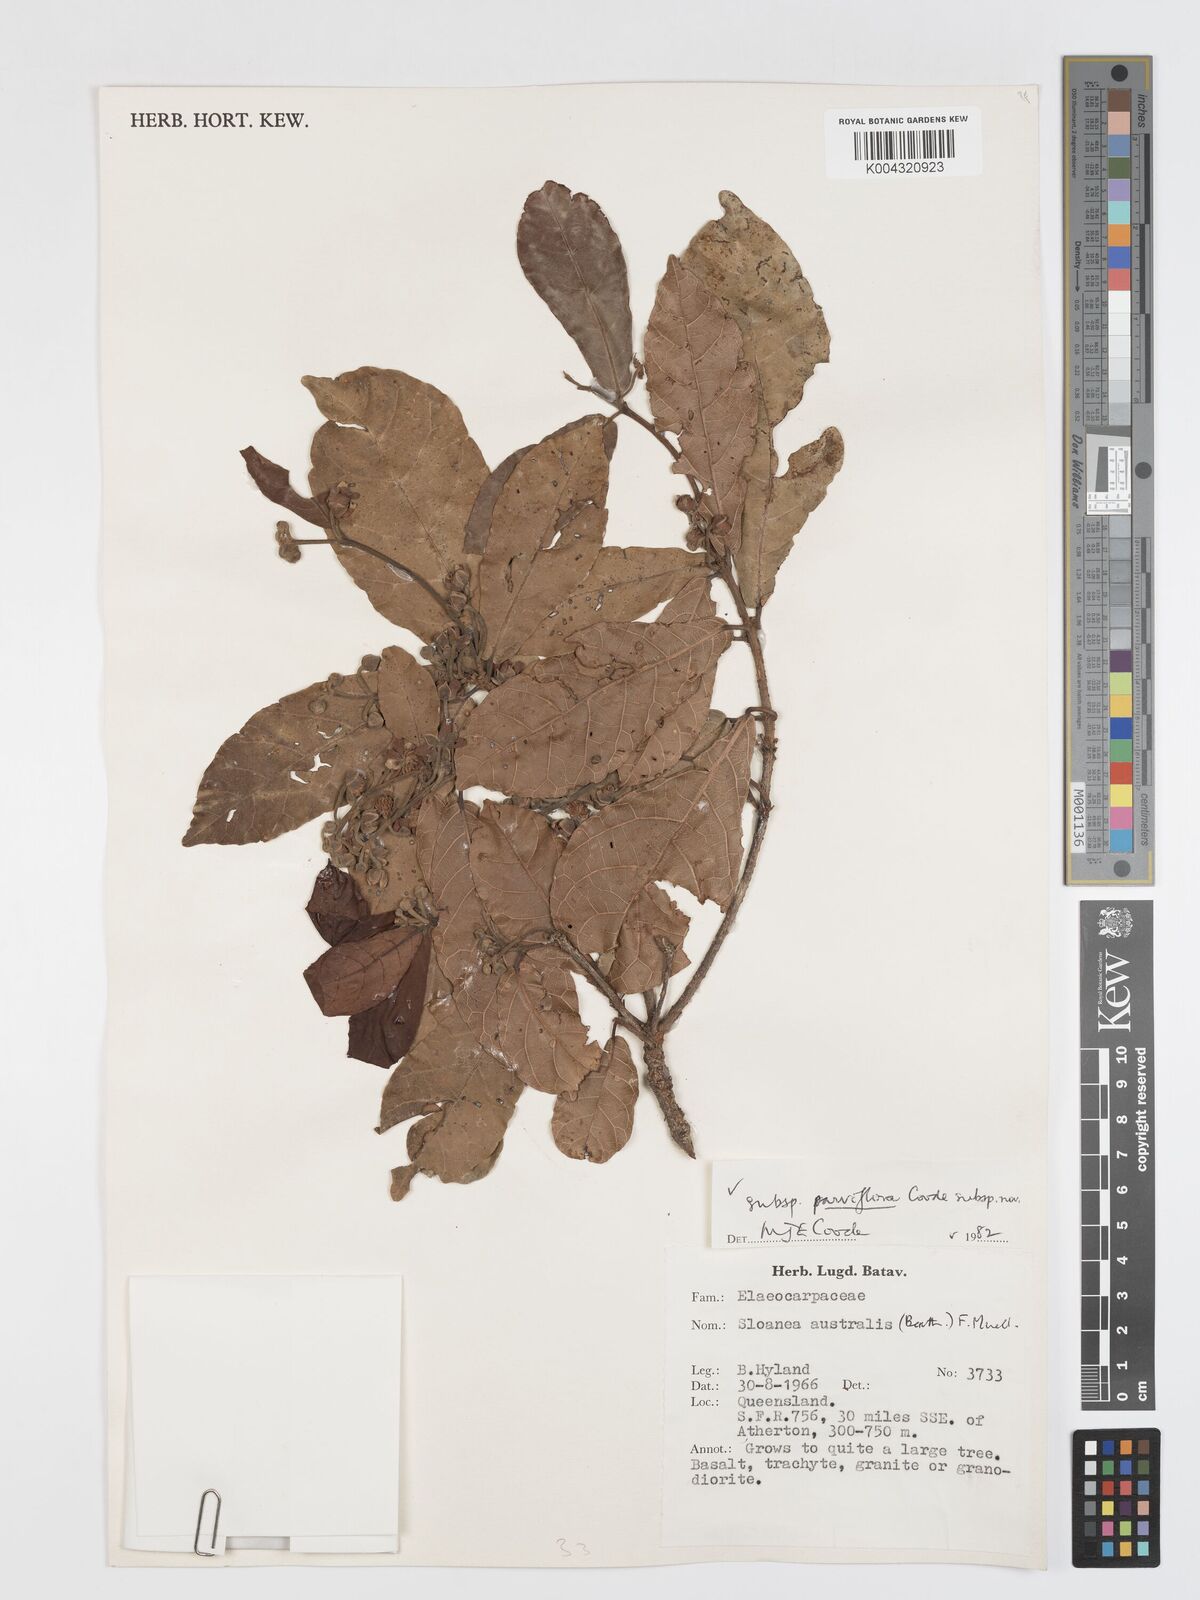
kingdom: Plantae
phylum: Tracheophyta
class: Magnoliopsida
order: Oxalidales
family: Elaeocarpaceae
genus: Sloanea
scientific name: Sloanea australis
